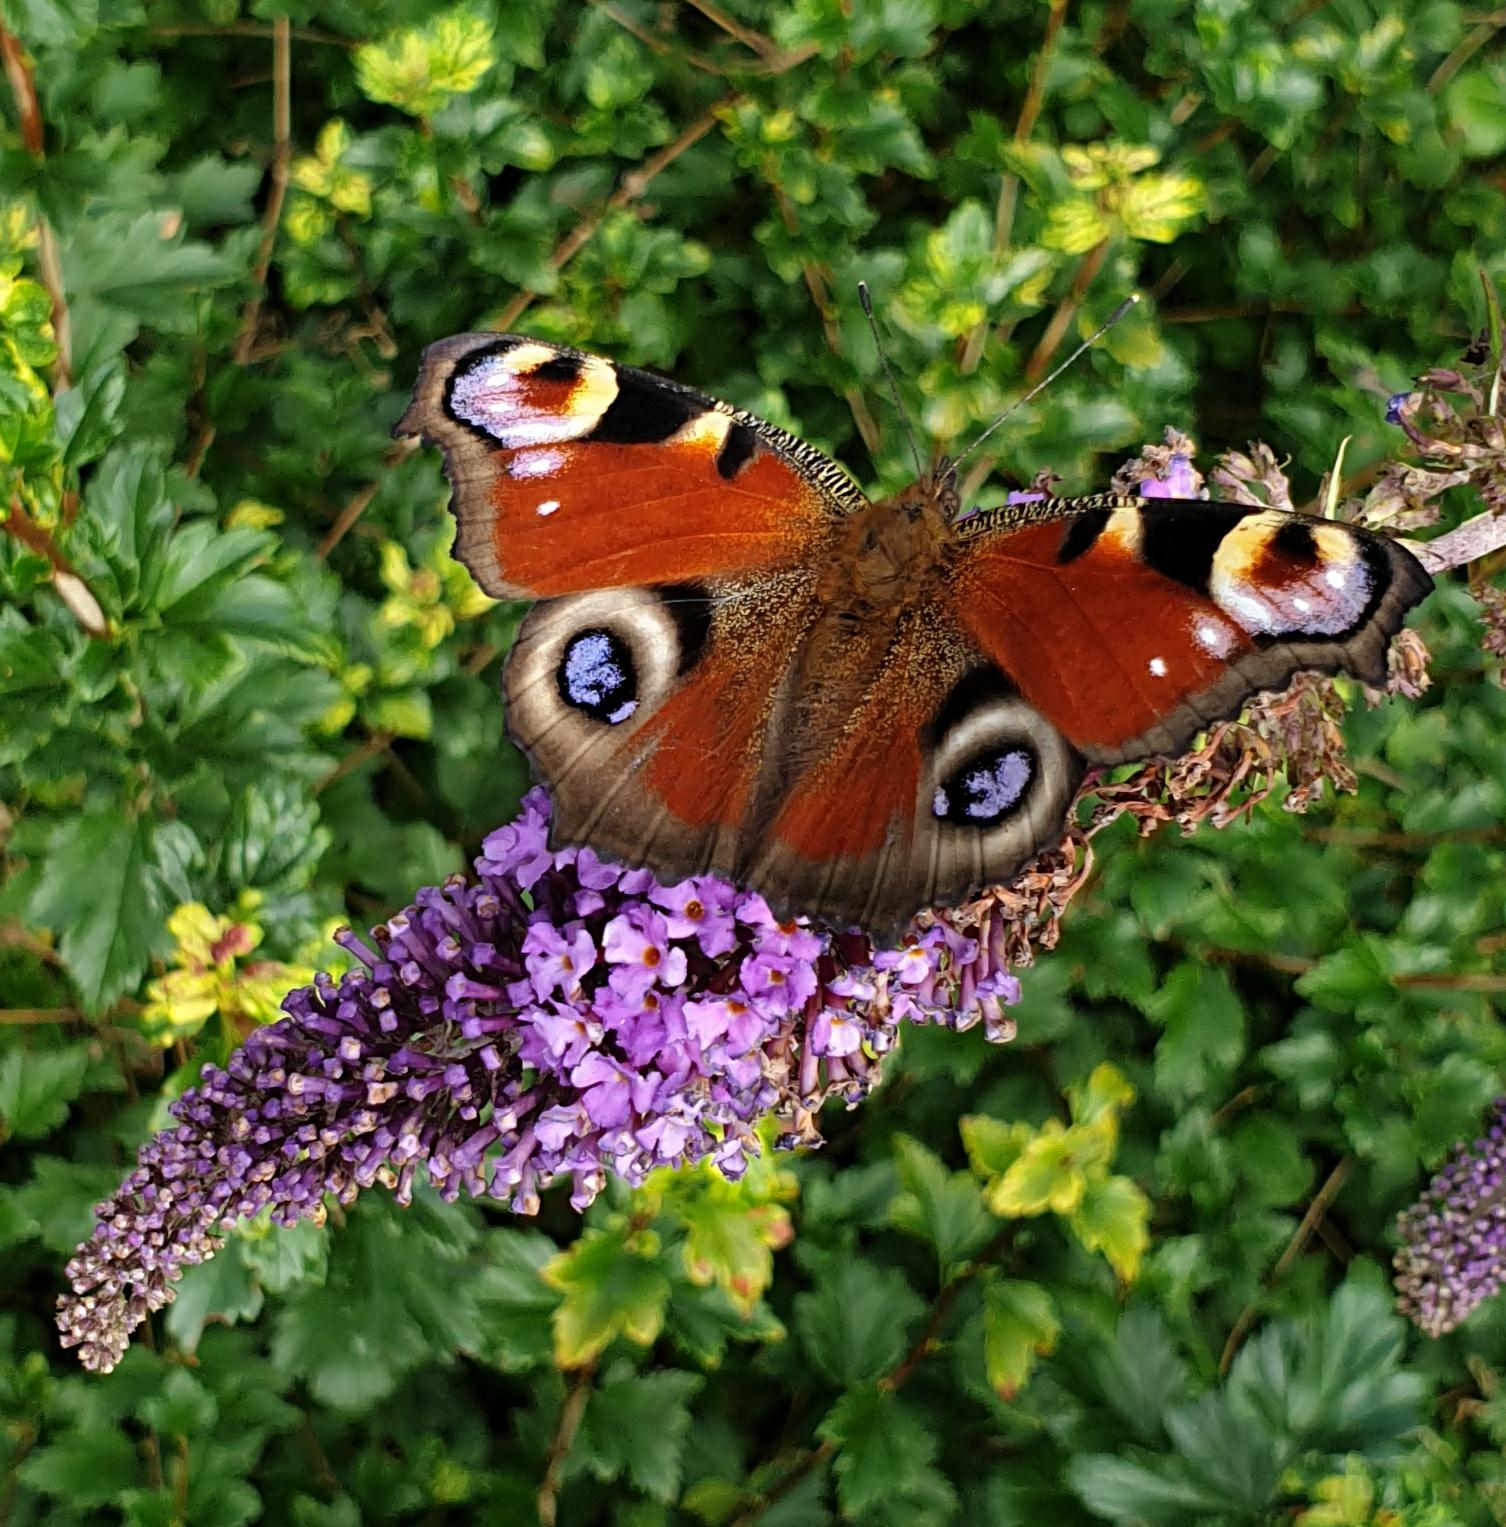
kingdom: Animalia
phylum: Arthropoda
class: Insecta
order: Lepidoptera
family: Nymphalidae
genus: Aglais
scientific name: Aglais io
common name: Dagpåfugleøje
